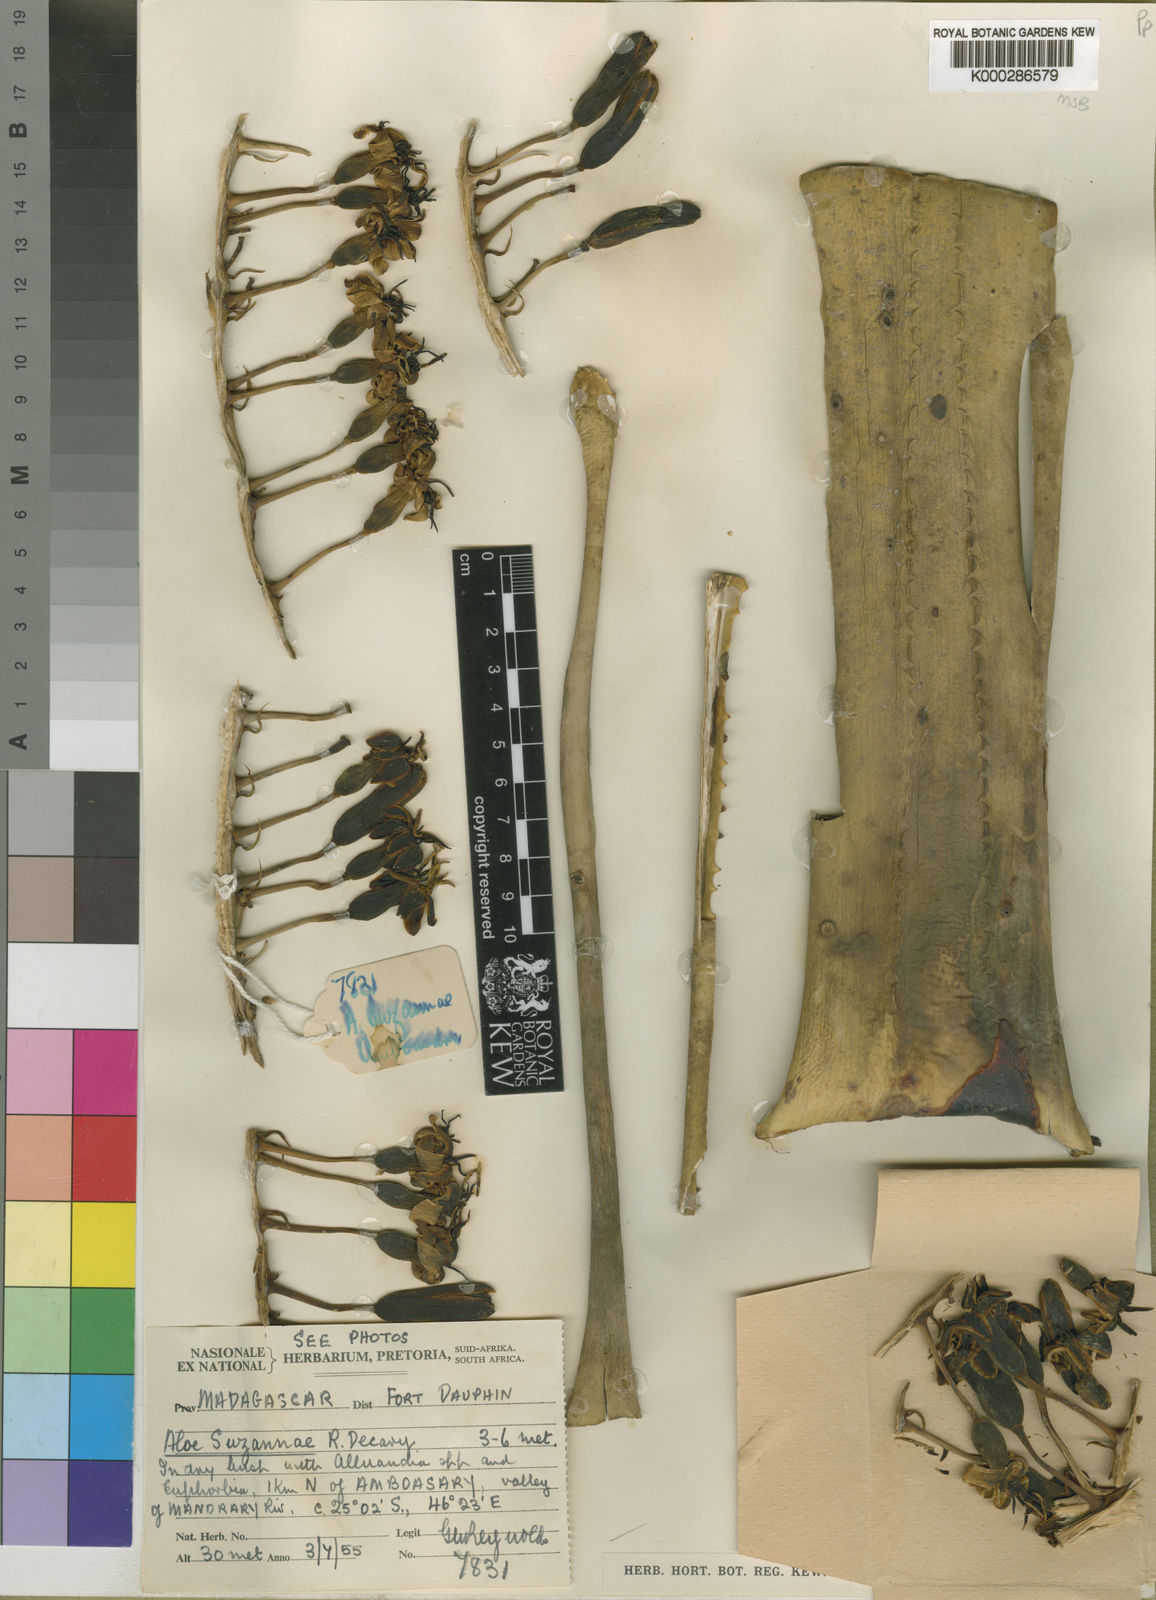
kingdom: Plantae
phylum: Tracheophyta
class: Liliopsida
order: Asparagales
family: Asphodelaceae
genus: Aloestrela
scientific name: Aloestrela suzannae
